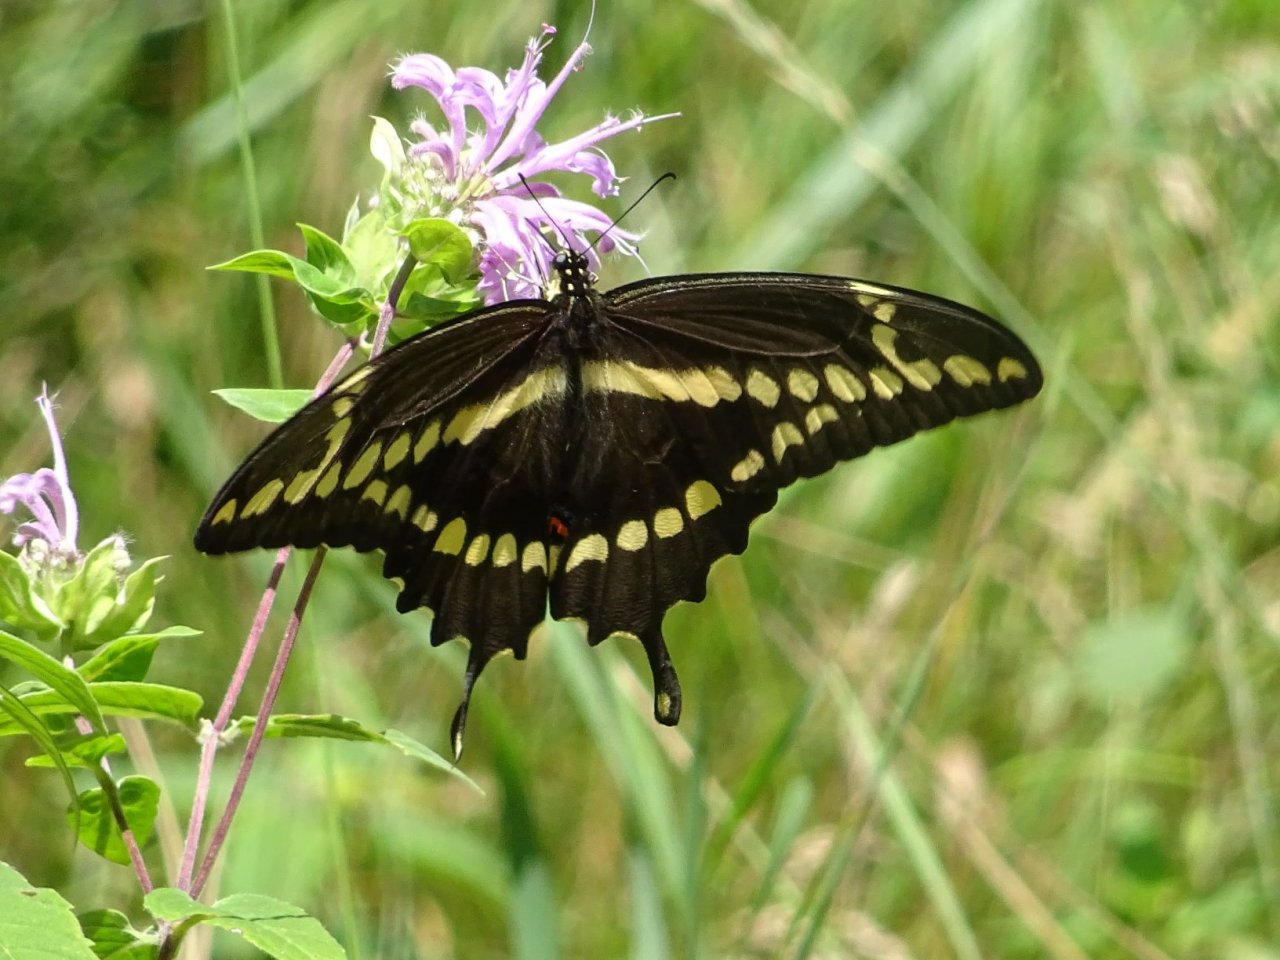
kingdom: Animalia
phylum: Arthropoda
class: Insecta
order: Lepidoptera
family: Papilionidae
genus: Papilio
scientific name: Papilio cresphontes
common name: Eastern Giant Swallowtail
